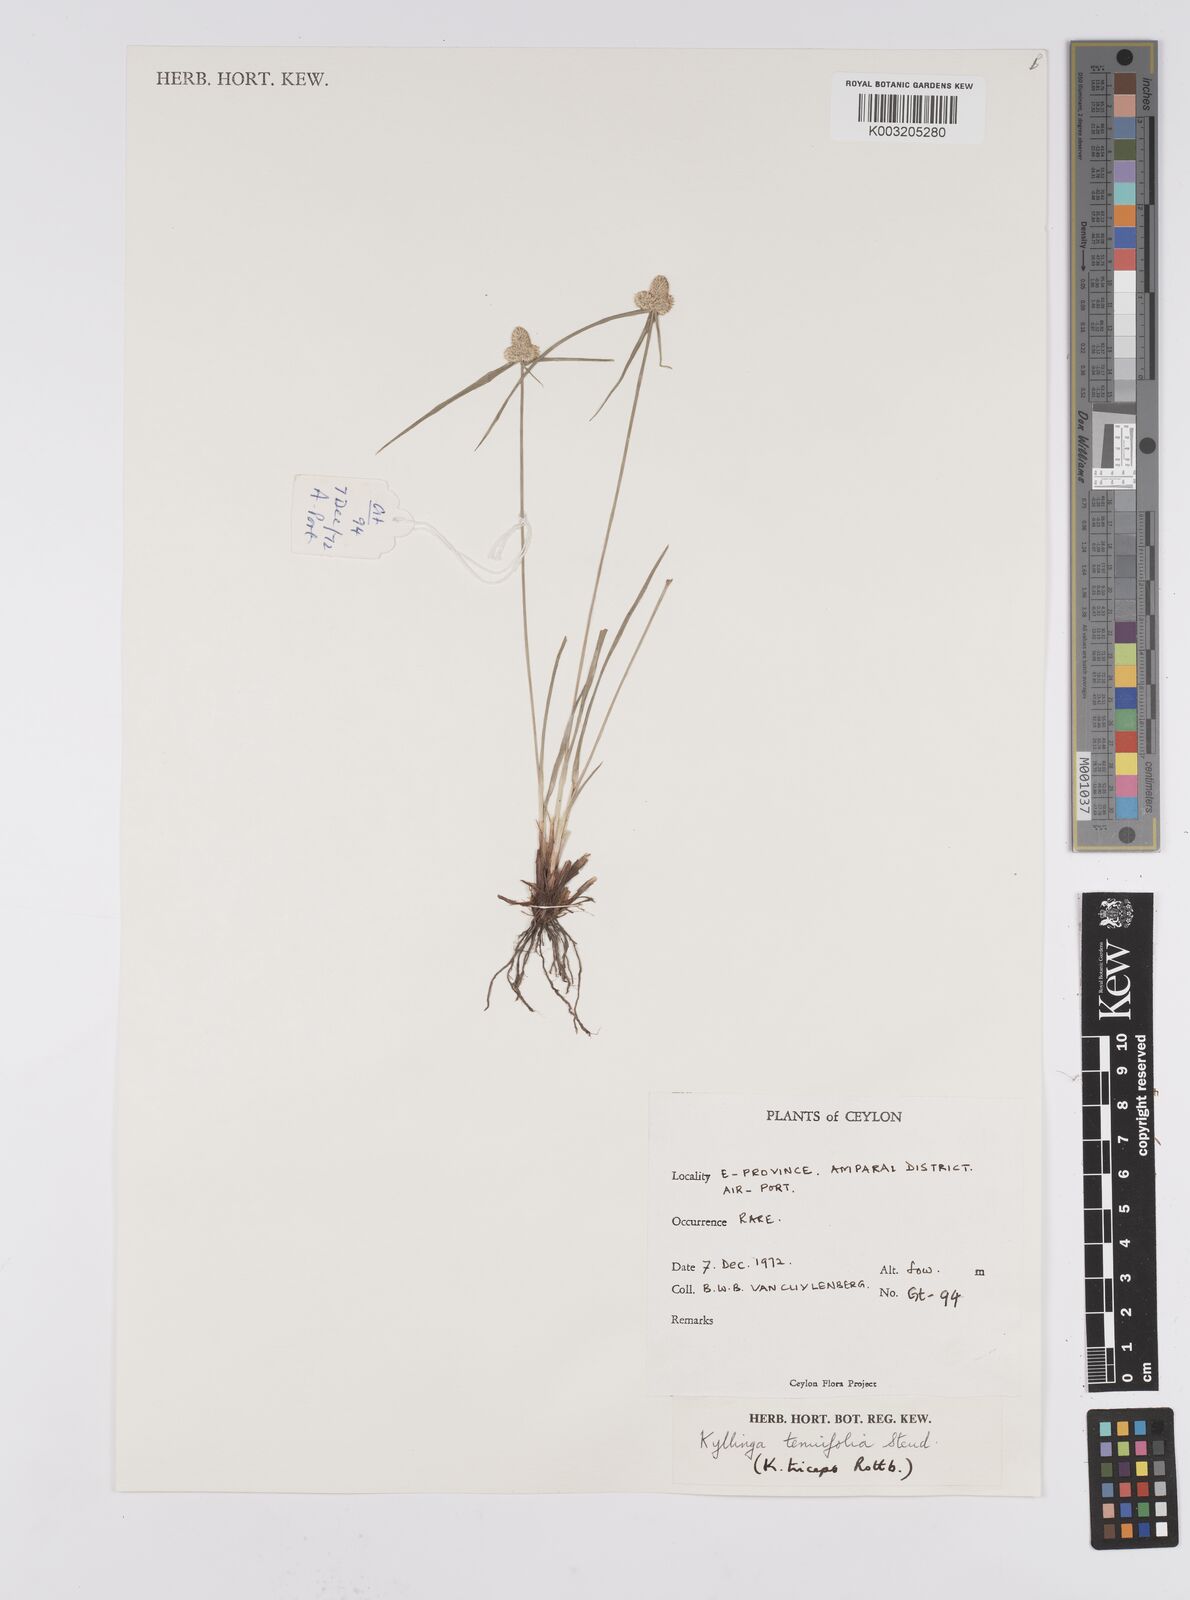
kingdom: Plantae
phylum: Tracheophyta
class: Liliopsida
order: Poales
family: Cyperaceae
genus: Cyperus
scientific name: Cyperus
